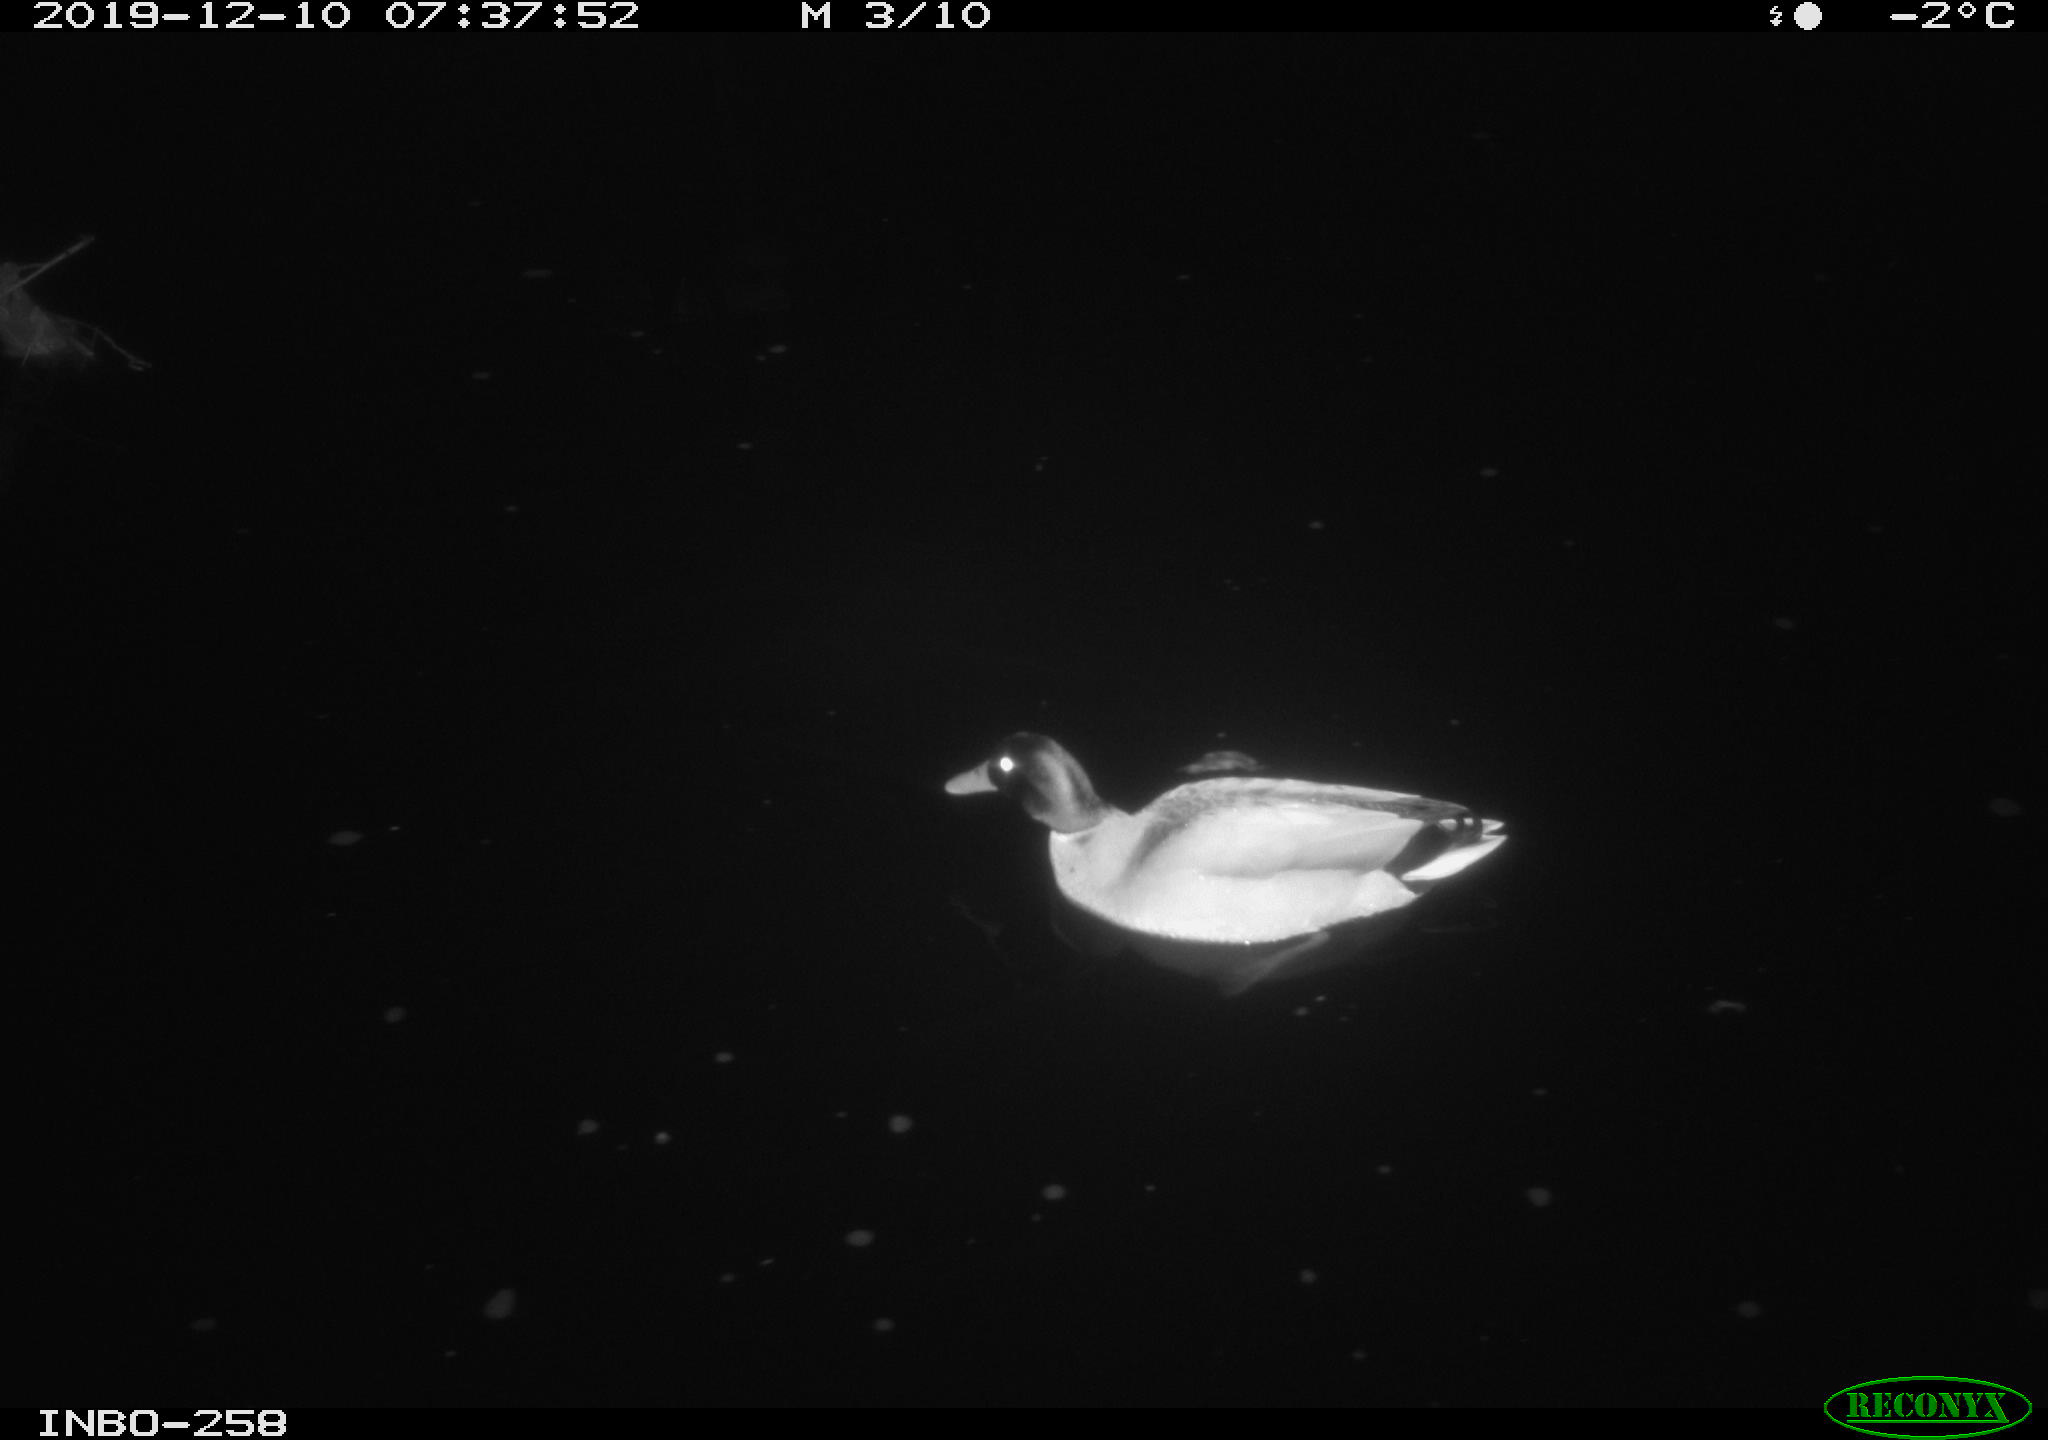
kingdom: Animalia
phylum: Chordata
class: Aves
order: Anseriformes
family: Anatidae
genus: Anas
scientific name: Anas platyrhynchos
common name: Mallard
